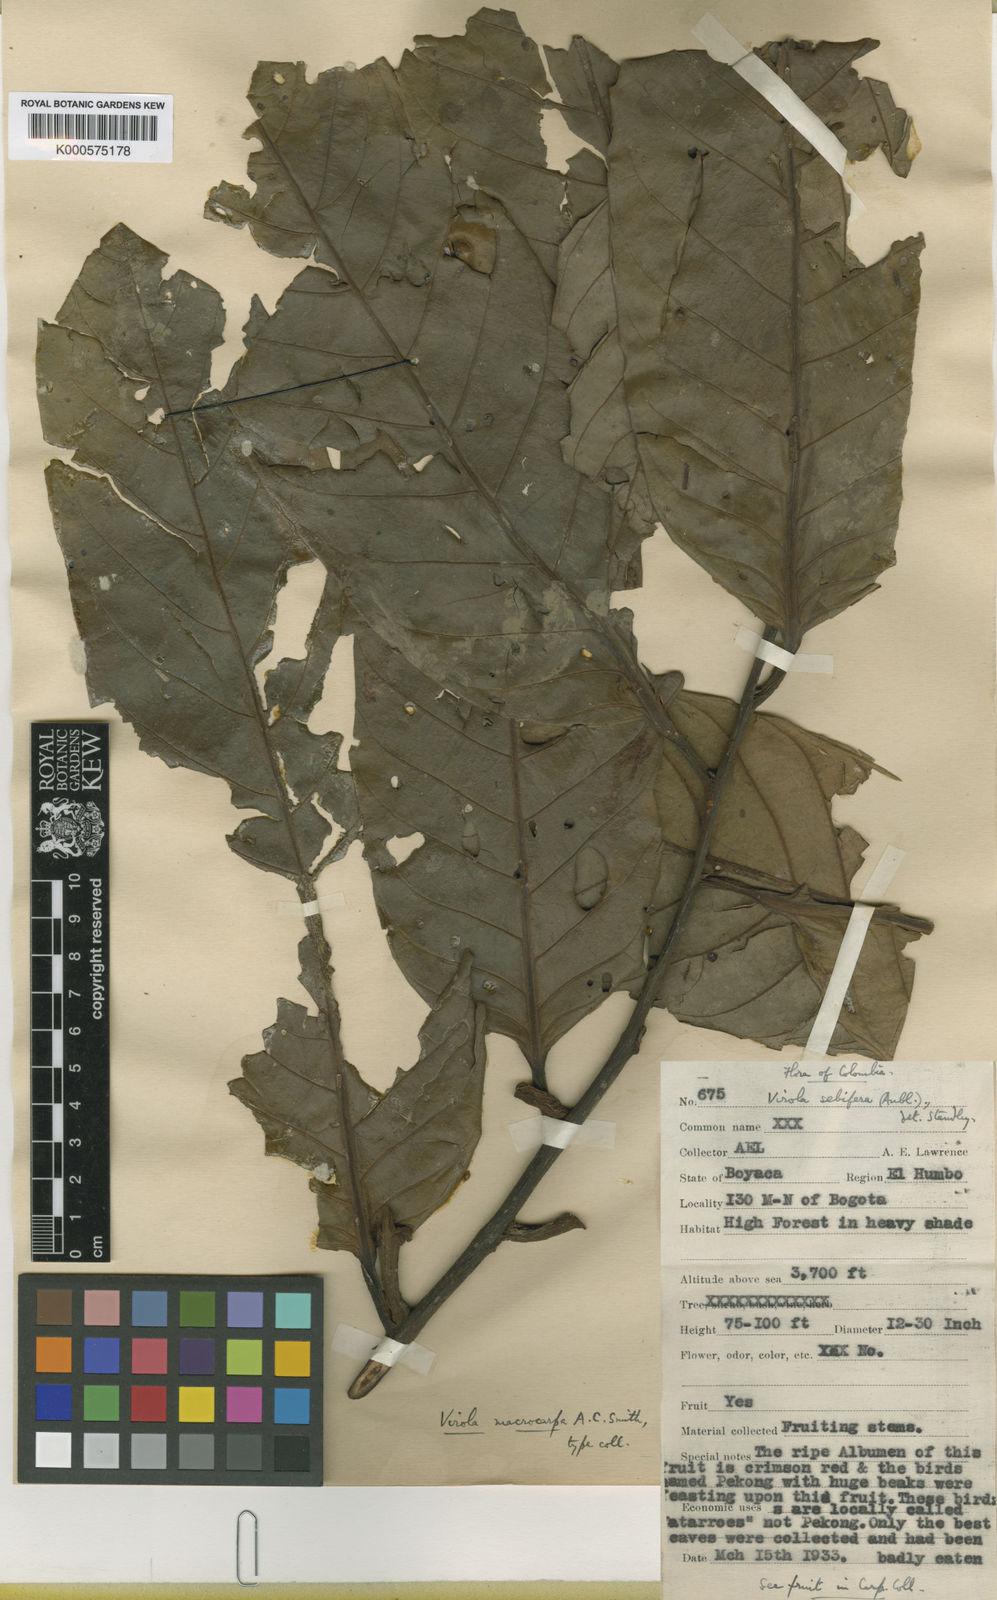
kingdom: Plantae
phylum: Tracheophyta
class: Magnoliopsida
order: Magnoliales
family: Myristicaceae
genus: Virola
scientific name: Virola macrocarpa
